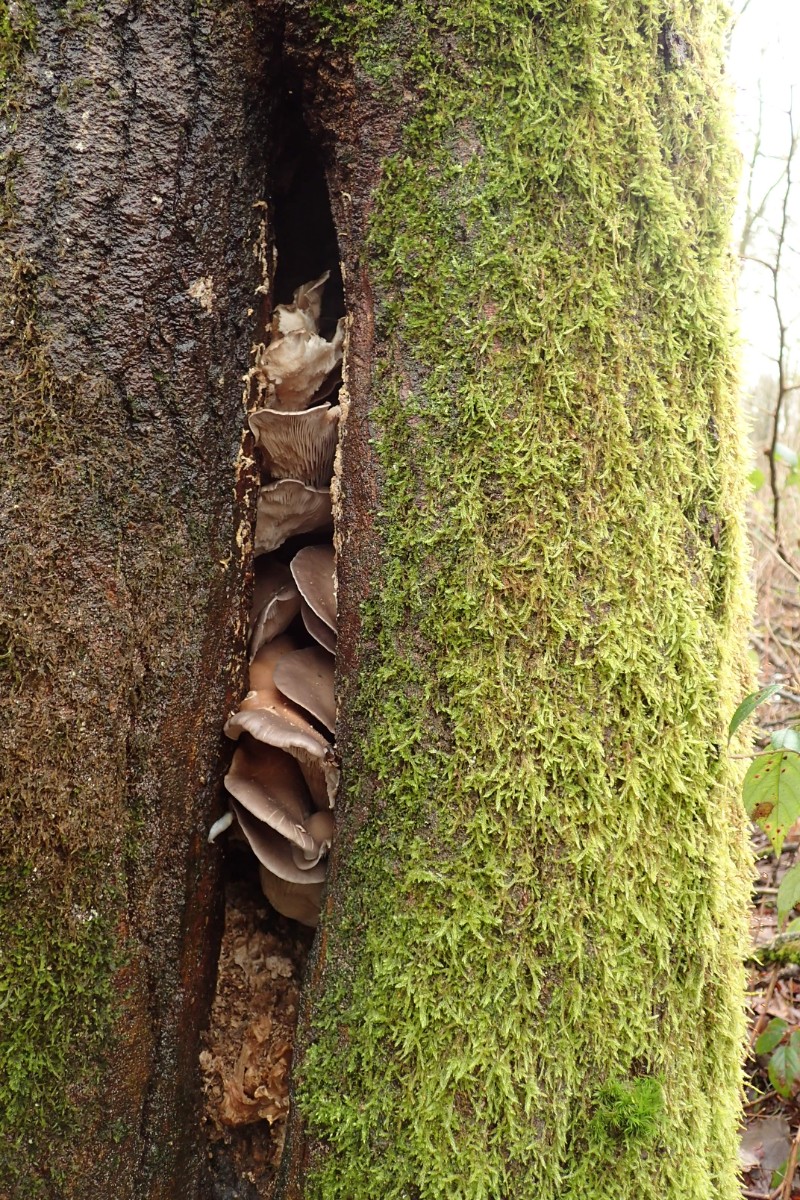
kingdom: Fungi
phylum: Basidiomycota
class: Agaricomycetes
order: Agaricales
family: Pleurotaceae
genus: Pleurotus
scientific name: Pleurotus ostreatus
